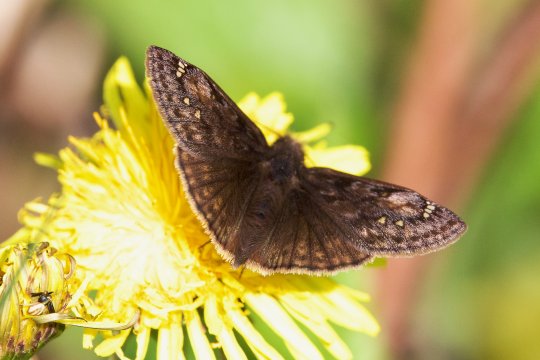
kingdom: Animalia
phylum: Arthropoda
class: Insecta
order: Lepidoptera
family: Hesperiidae
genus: Gesta
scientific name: Gesta
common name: Juvenal's Duskywing
